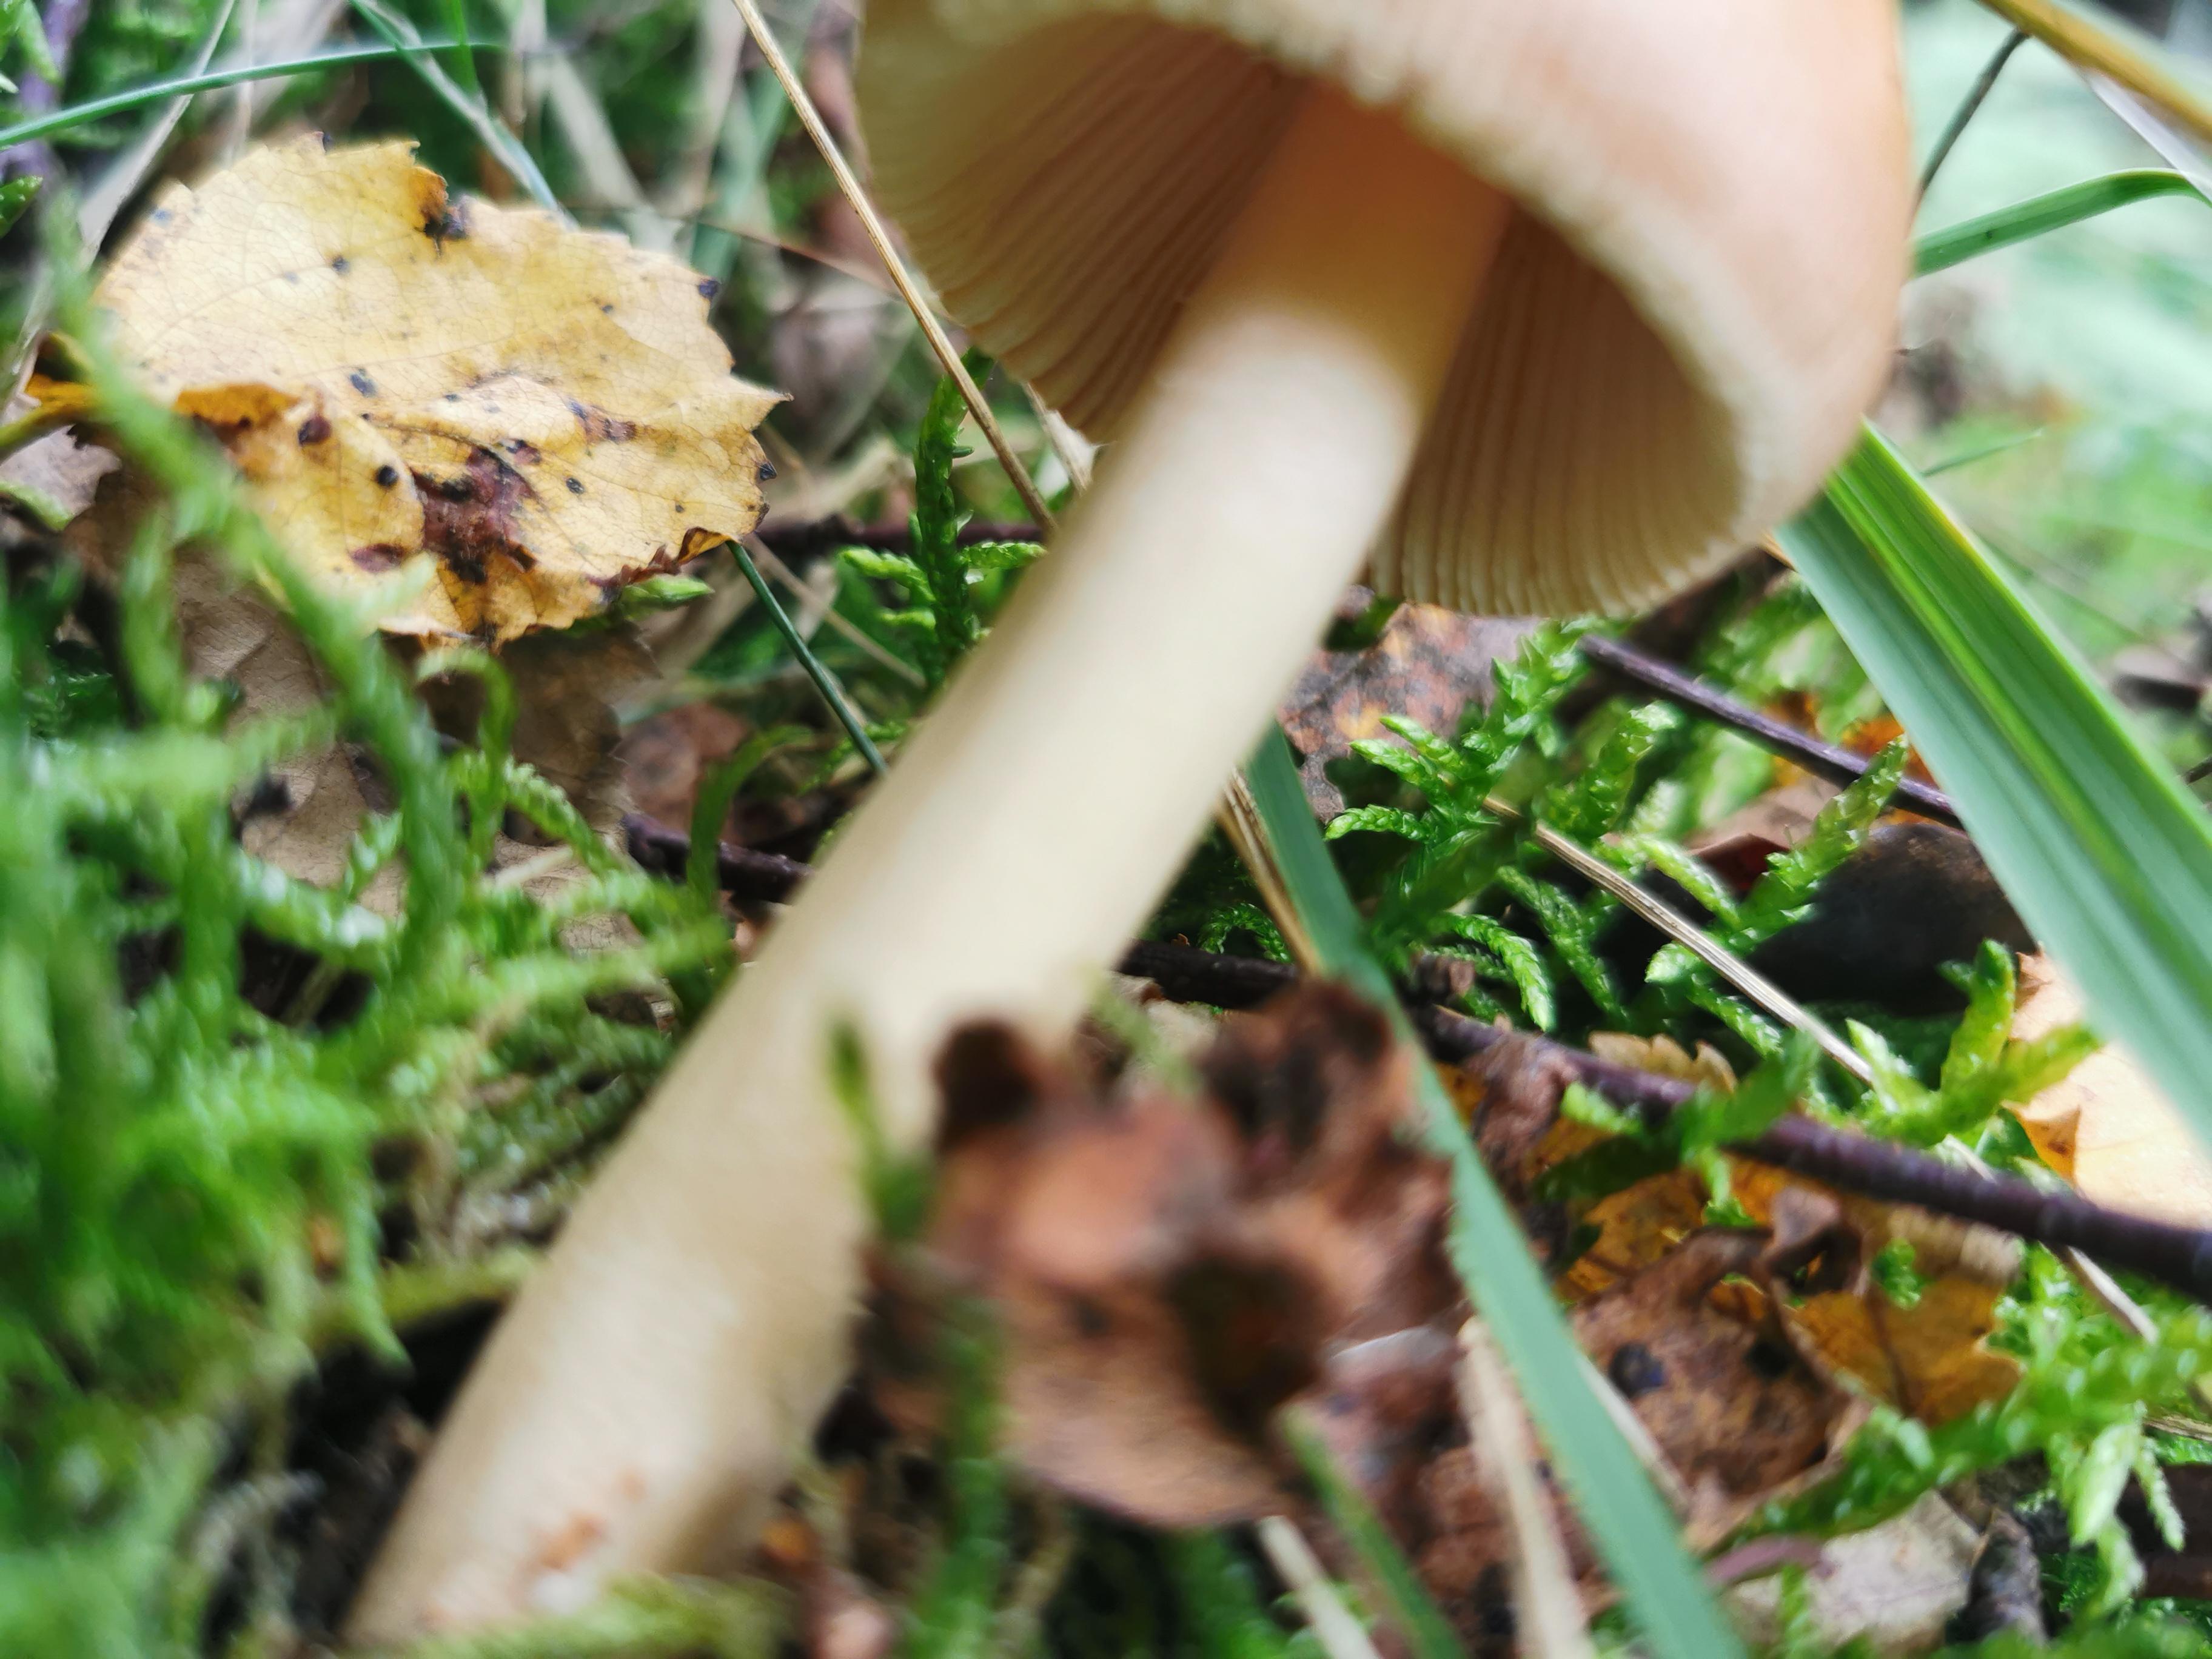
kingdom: Fungi
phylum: Basidiomycota
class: Agaricomycetes
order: Agaricales
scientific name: Agaricales
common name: champignonordenen
